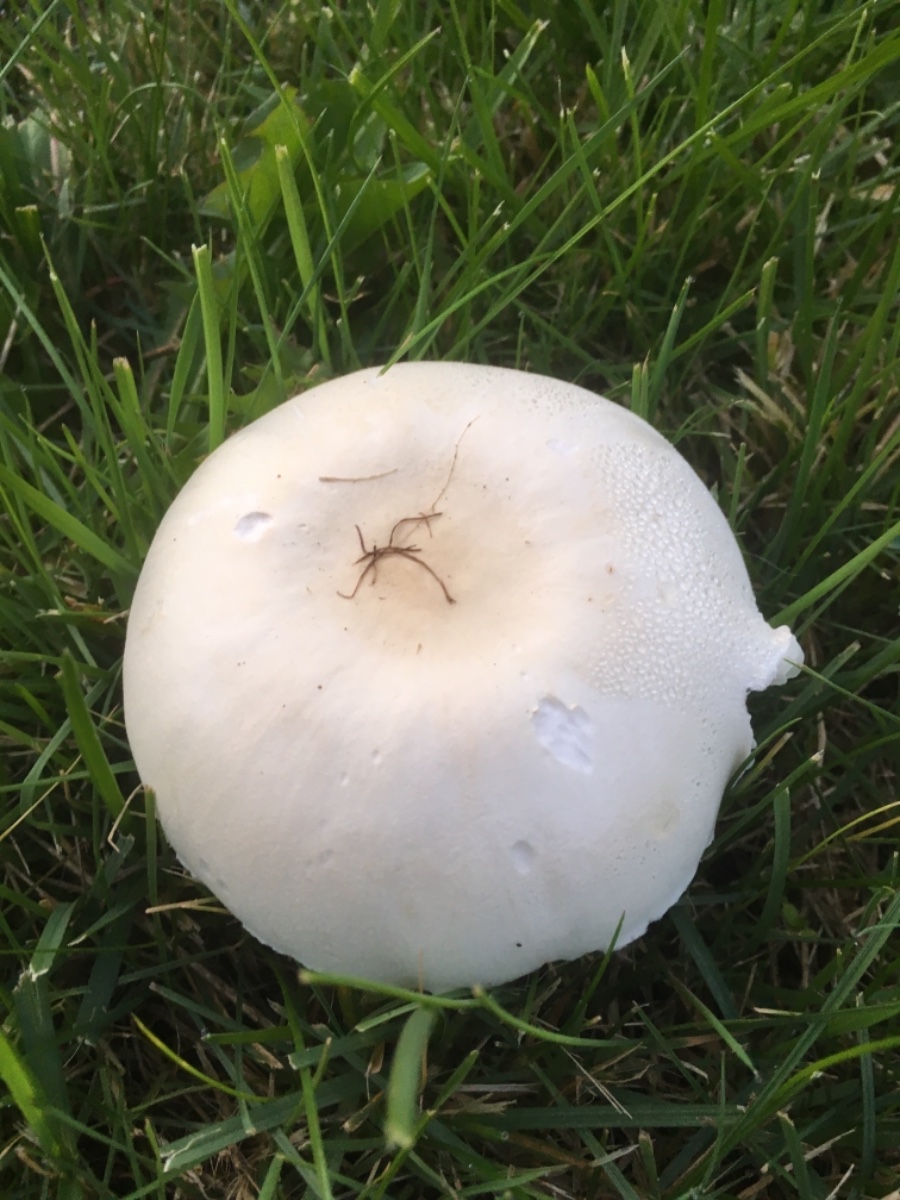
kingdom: Fungi
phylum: Basidiomycota
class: Agaricomycetes
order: Agaricales
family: Agaricaceae
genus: Leucoagaricus
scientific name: Leucoagaricus leucothites
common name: rosabladet silkehat
